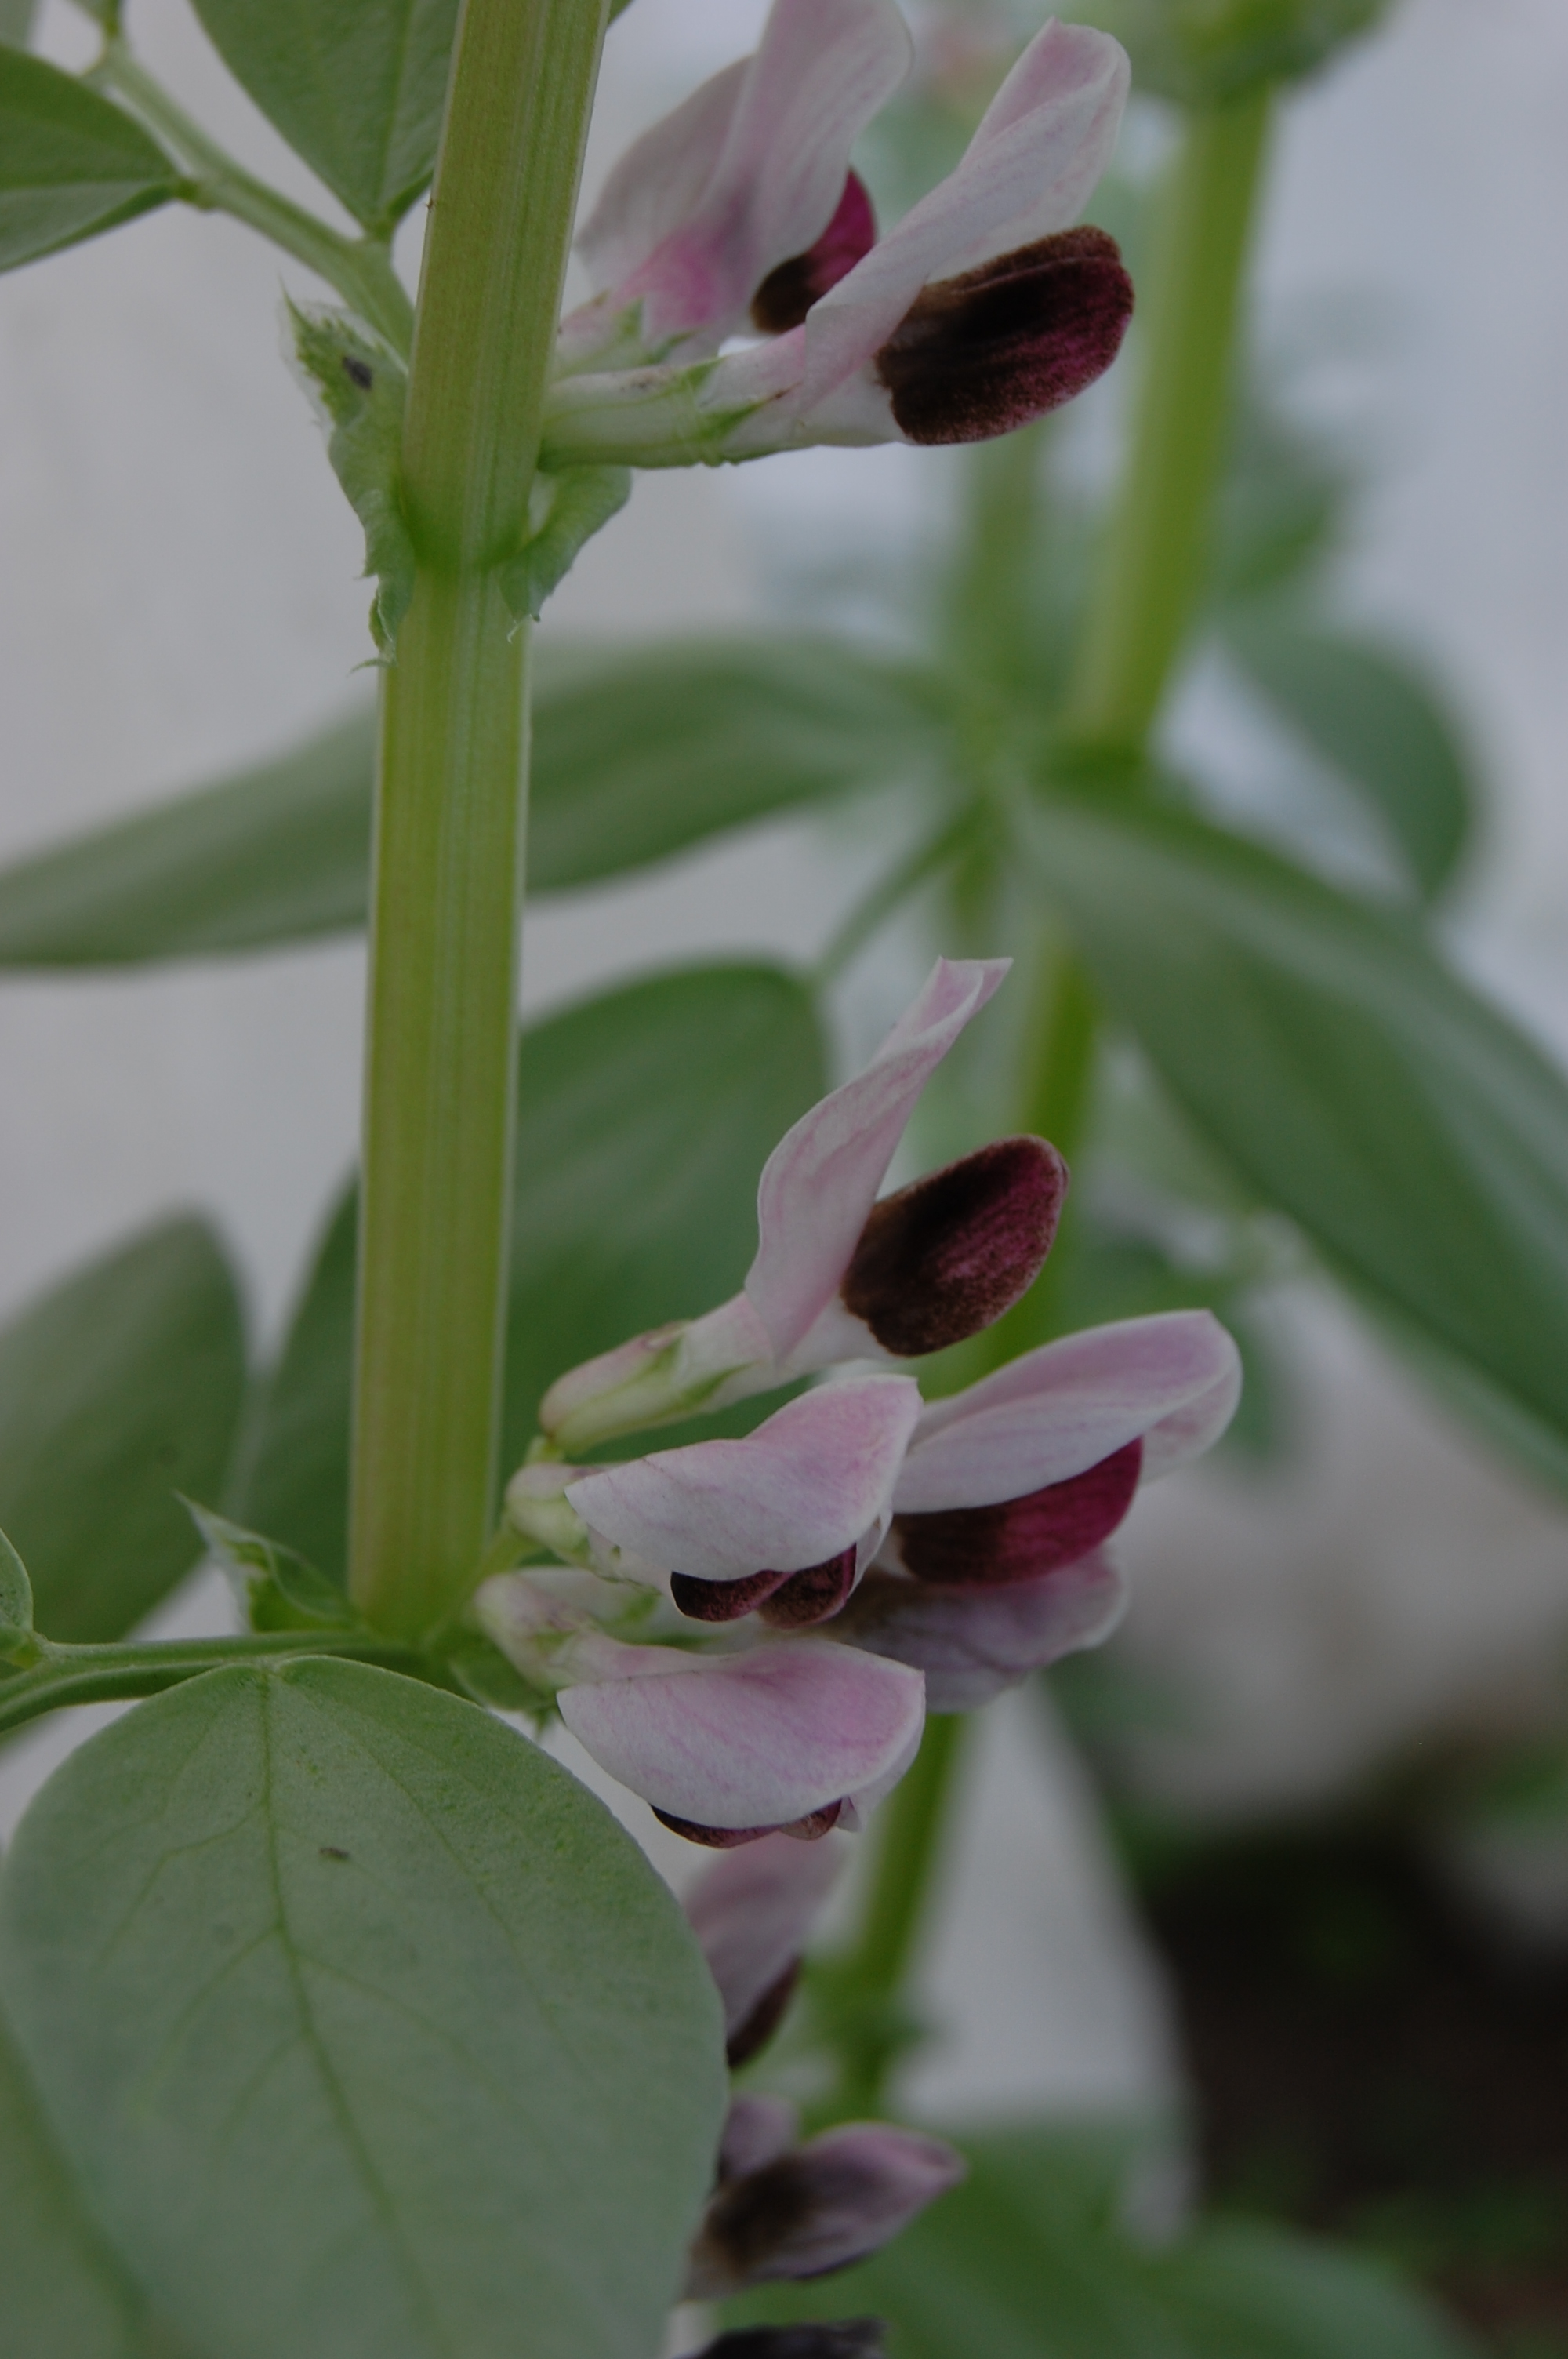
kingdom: Plantae
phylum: Tracheophyta
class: Magnoliopsida
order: Fabales
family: Fabaceae
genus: Vicia
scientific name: Vicia faba
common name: Broad bean
